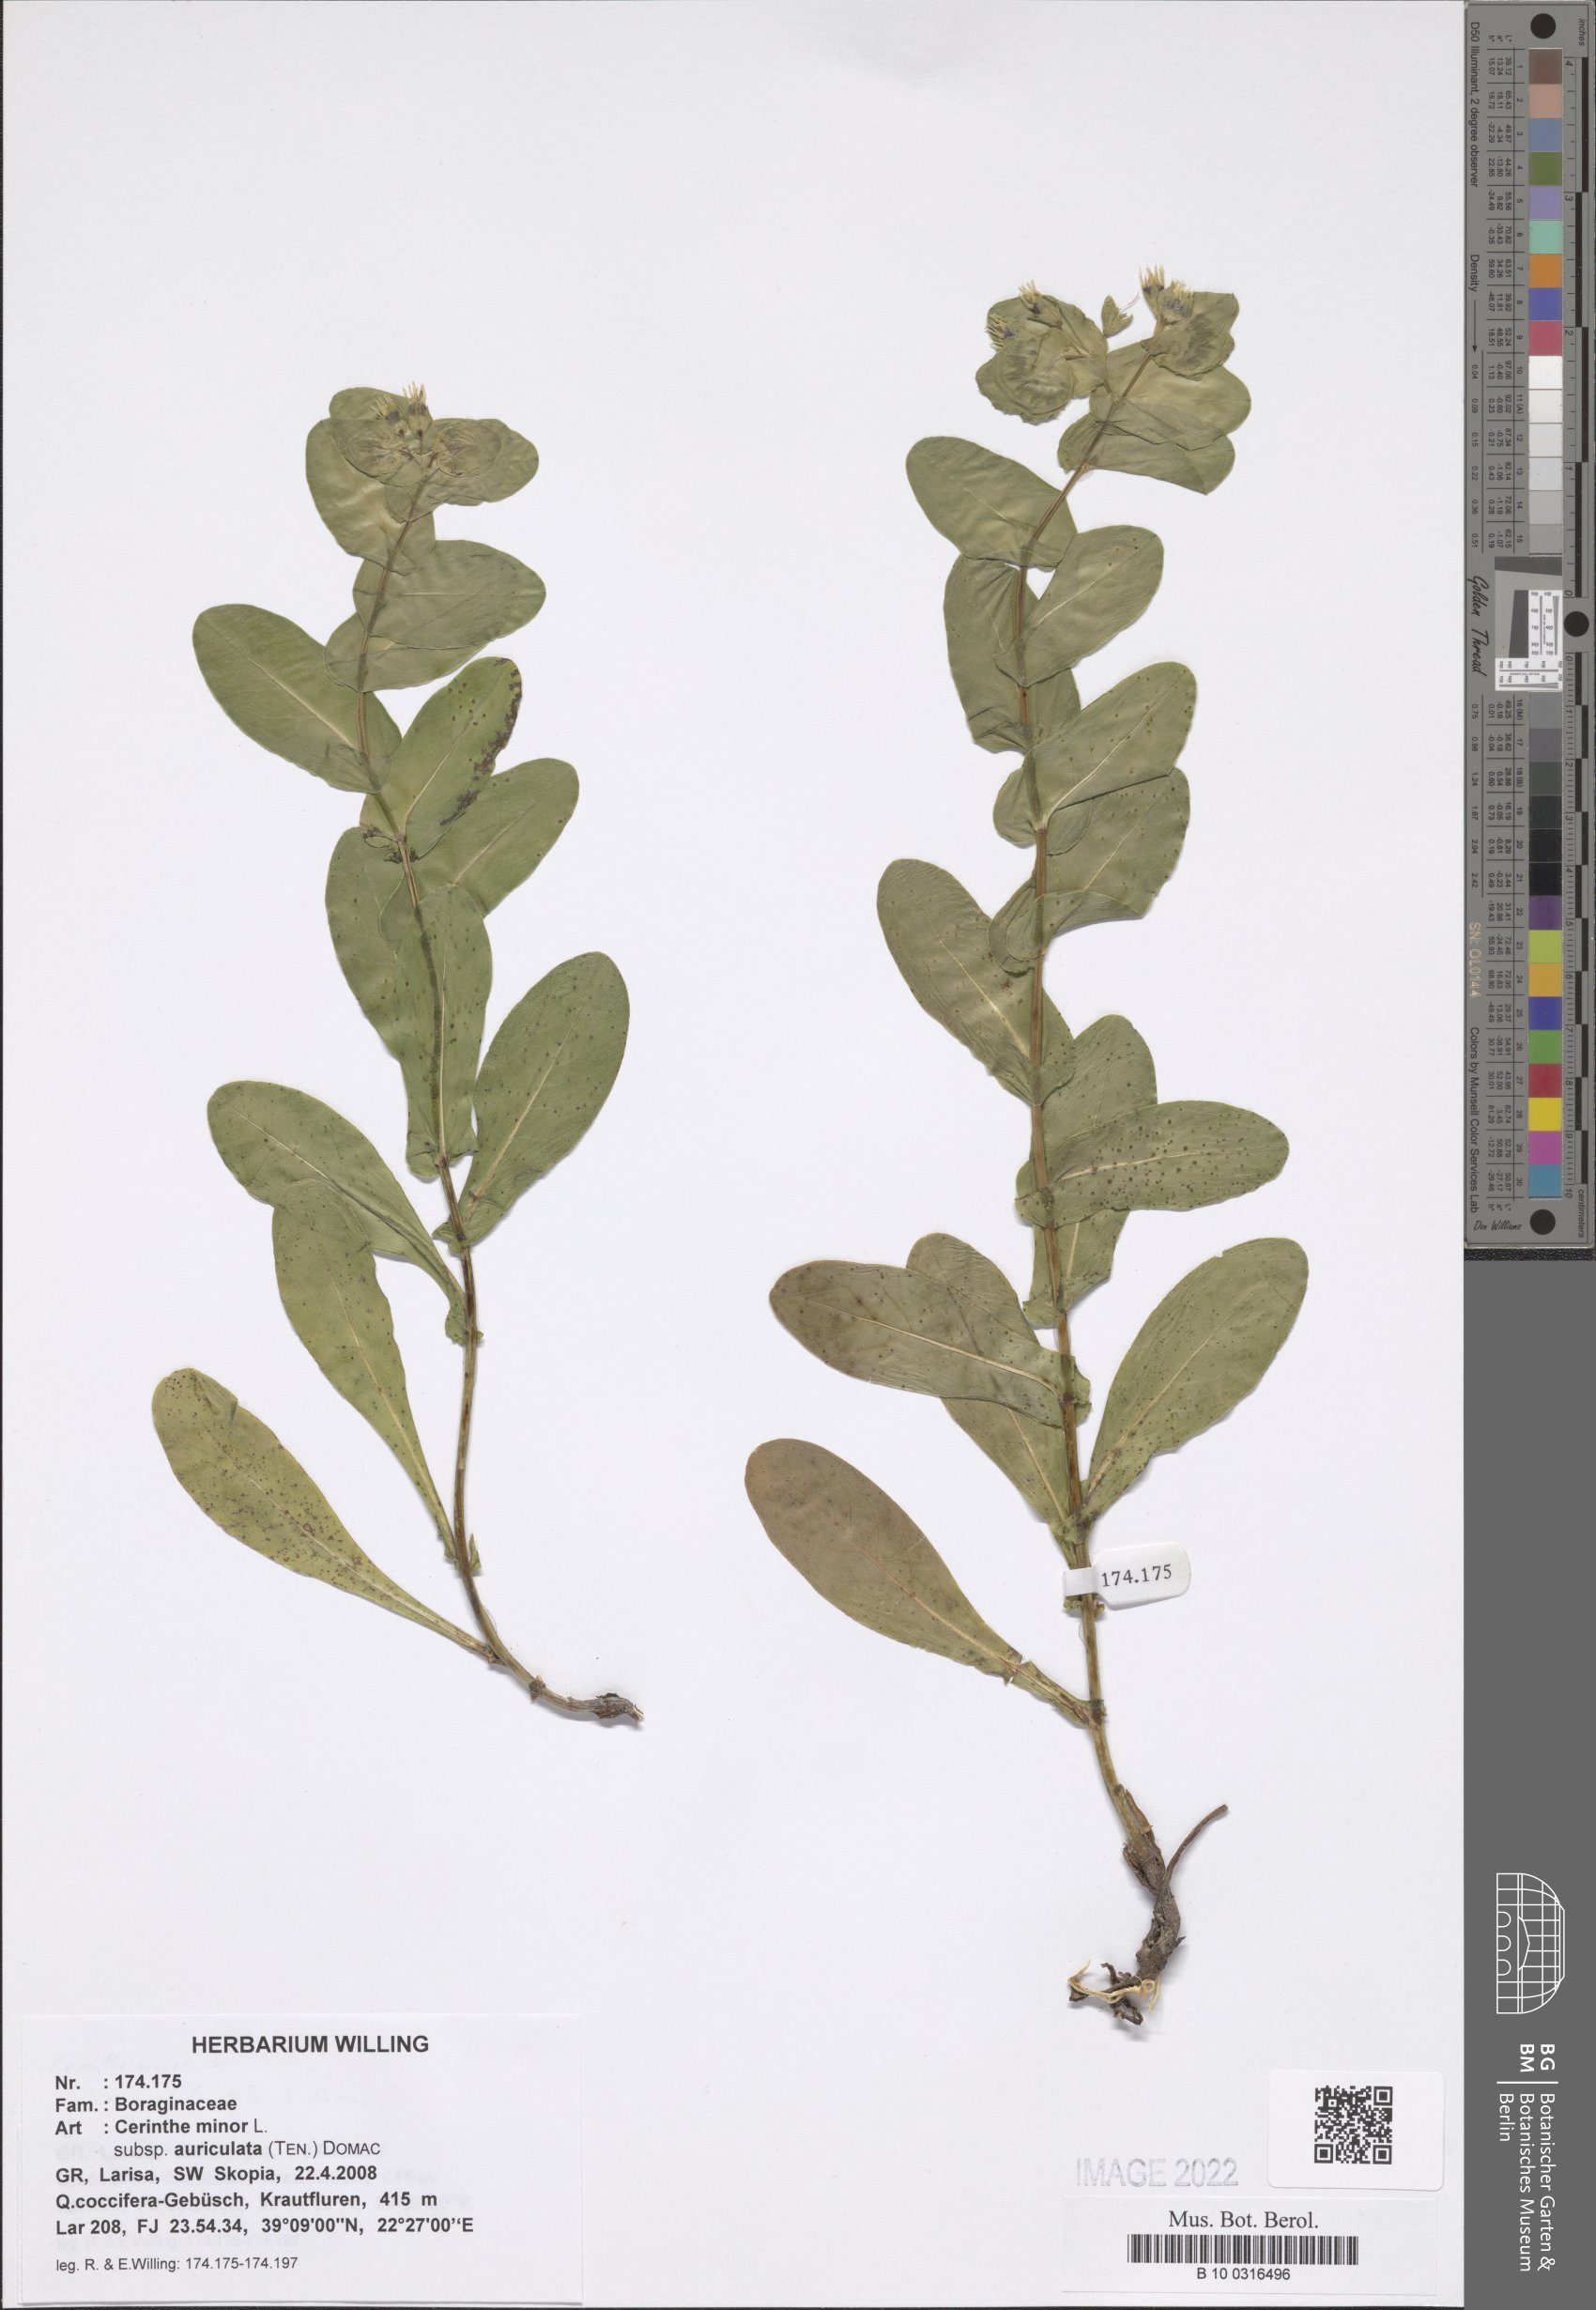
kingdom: Plantae
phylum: Tracheophyta
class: Magnoliopsida
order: Boraginales
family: Boraginaceae
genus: Cerinthe
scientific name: Cerinthe minor
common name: Lesser honeywort
